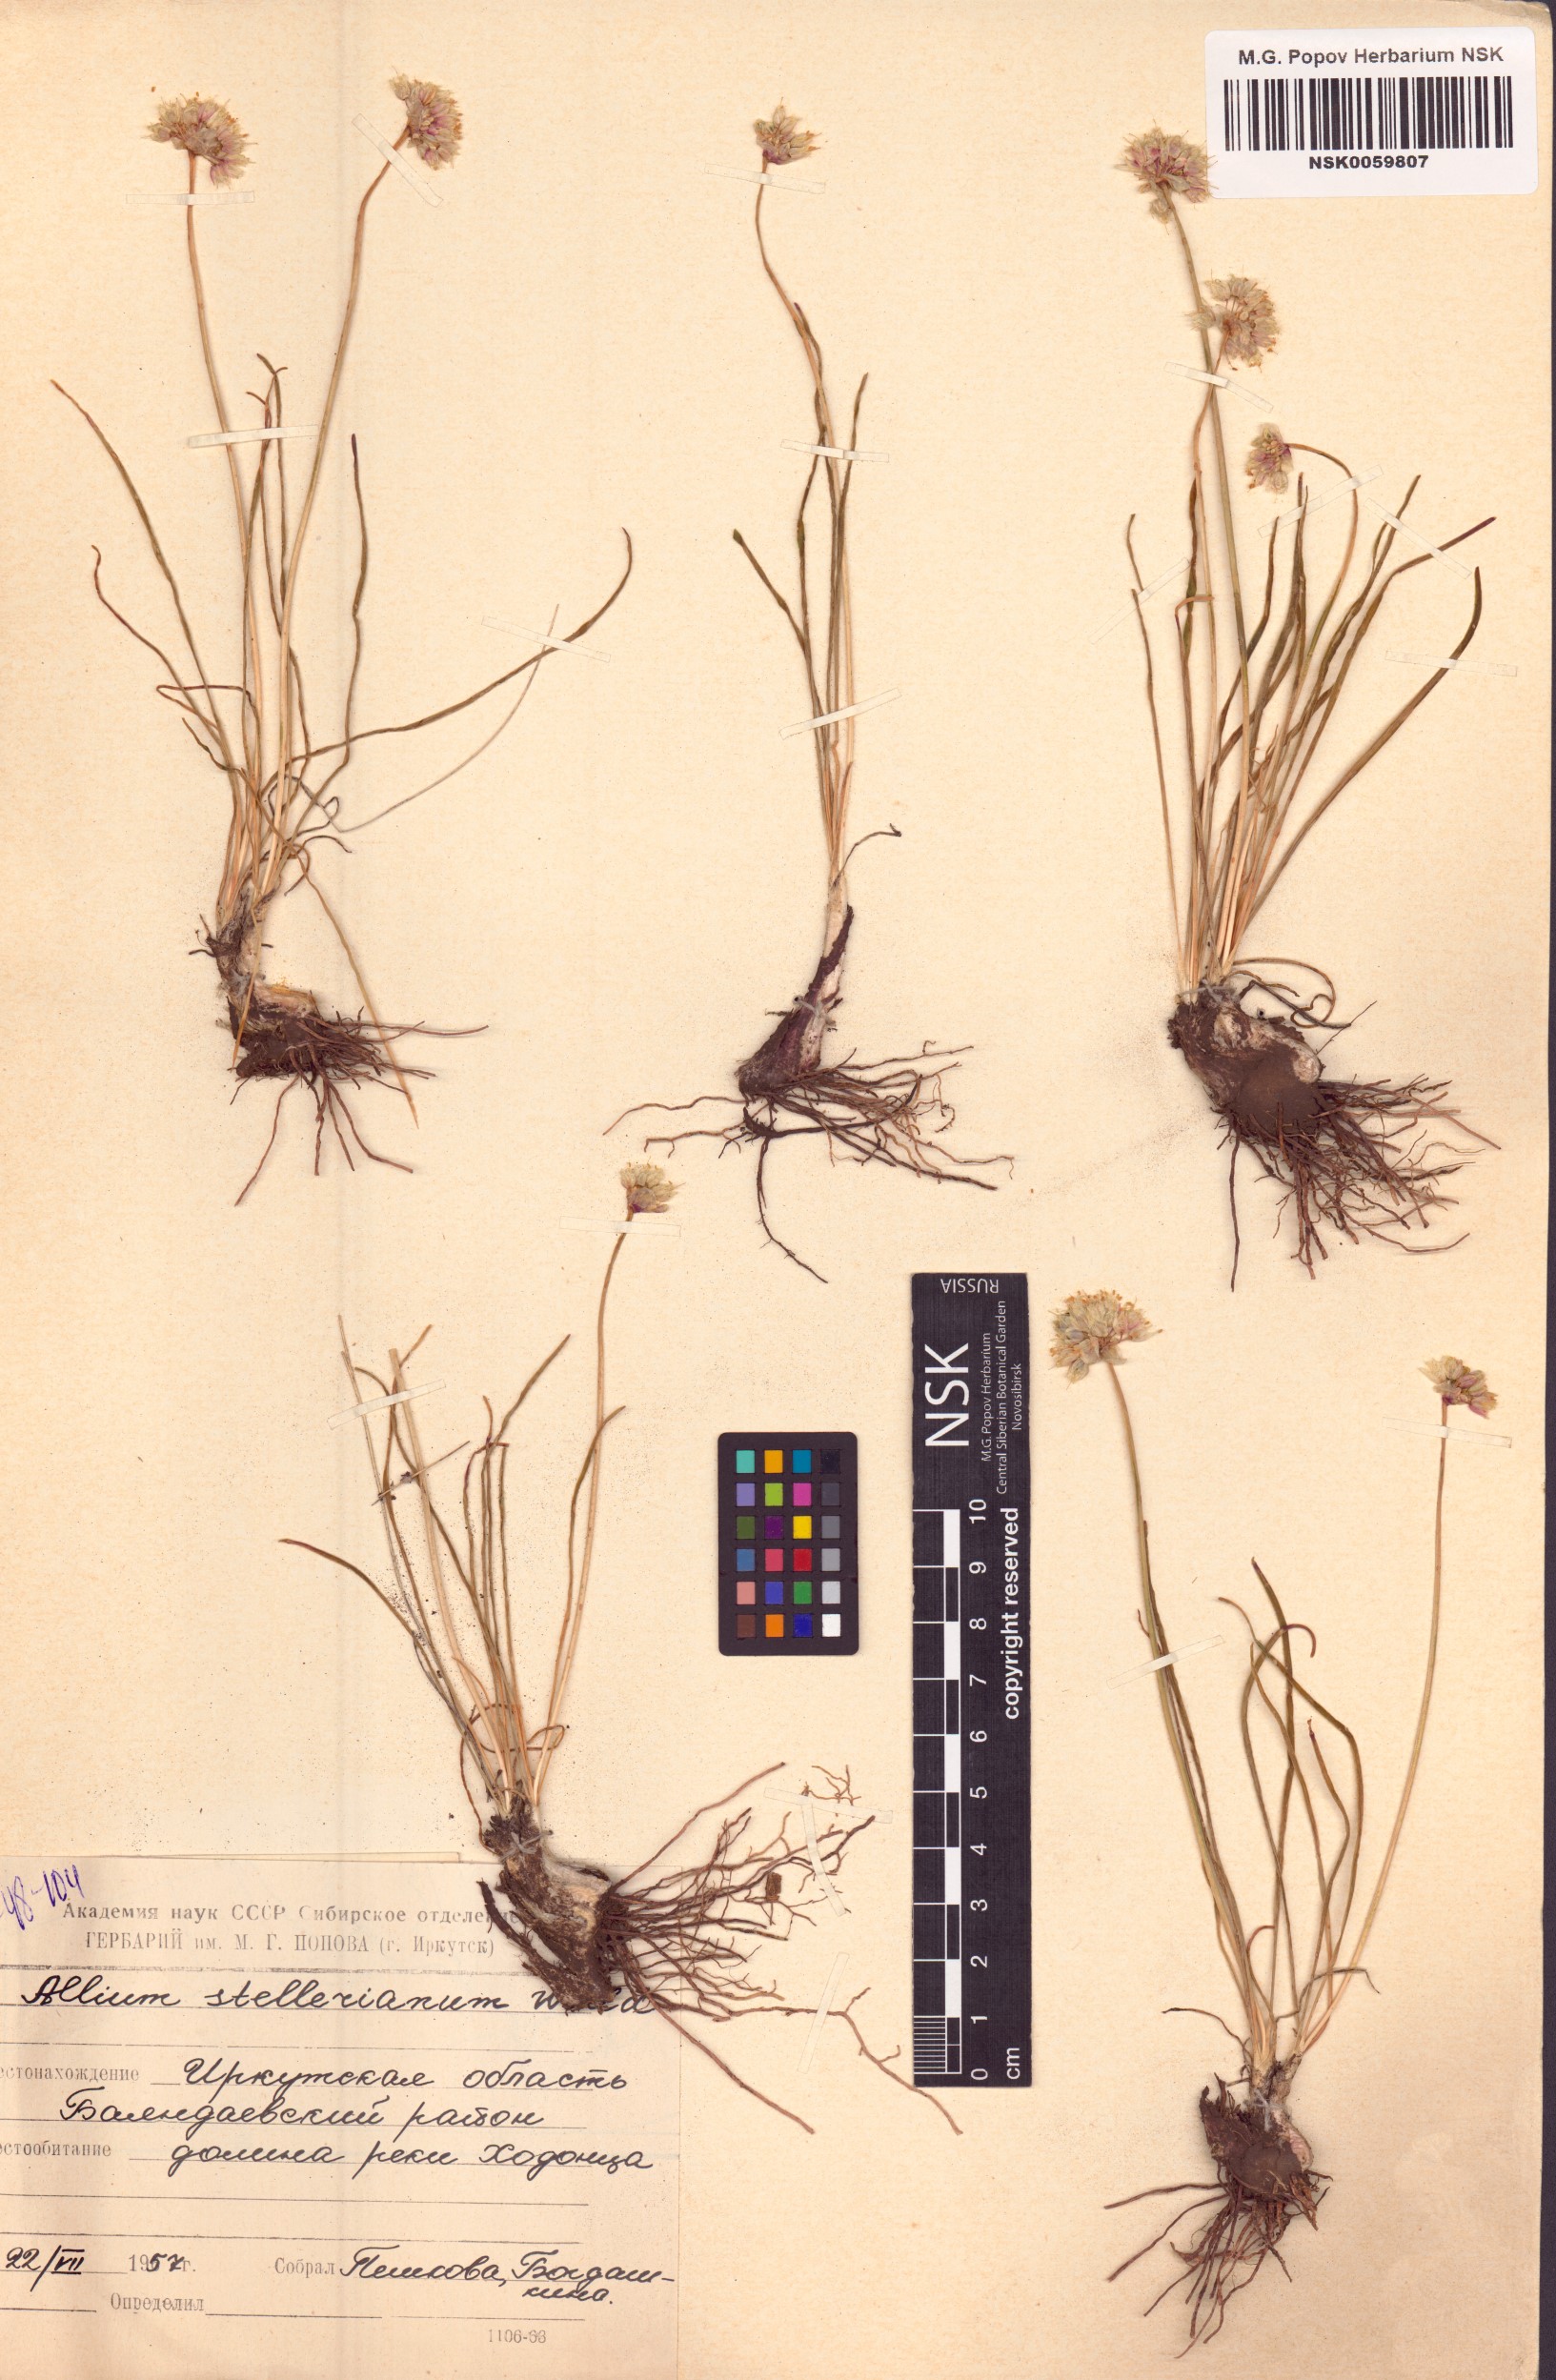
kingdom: Plantae
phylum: Tracheophyta
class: Liliopsida
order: Asparagales
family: Amaryllidaceae
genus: Allium
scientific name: Allium stellerianum
